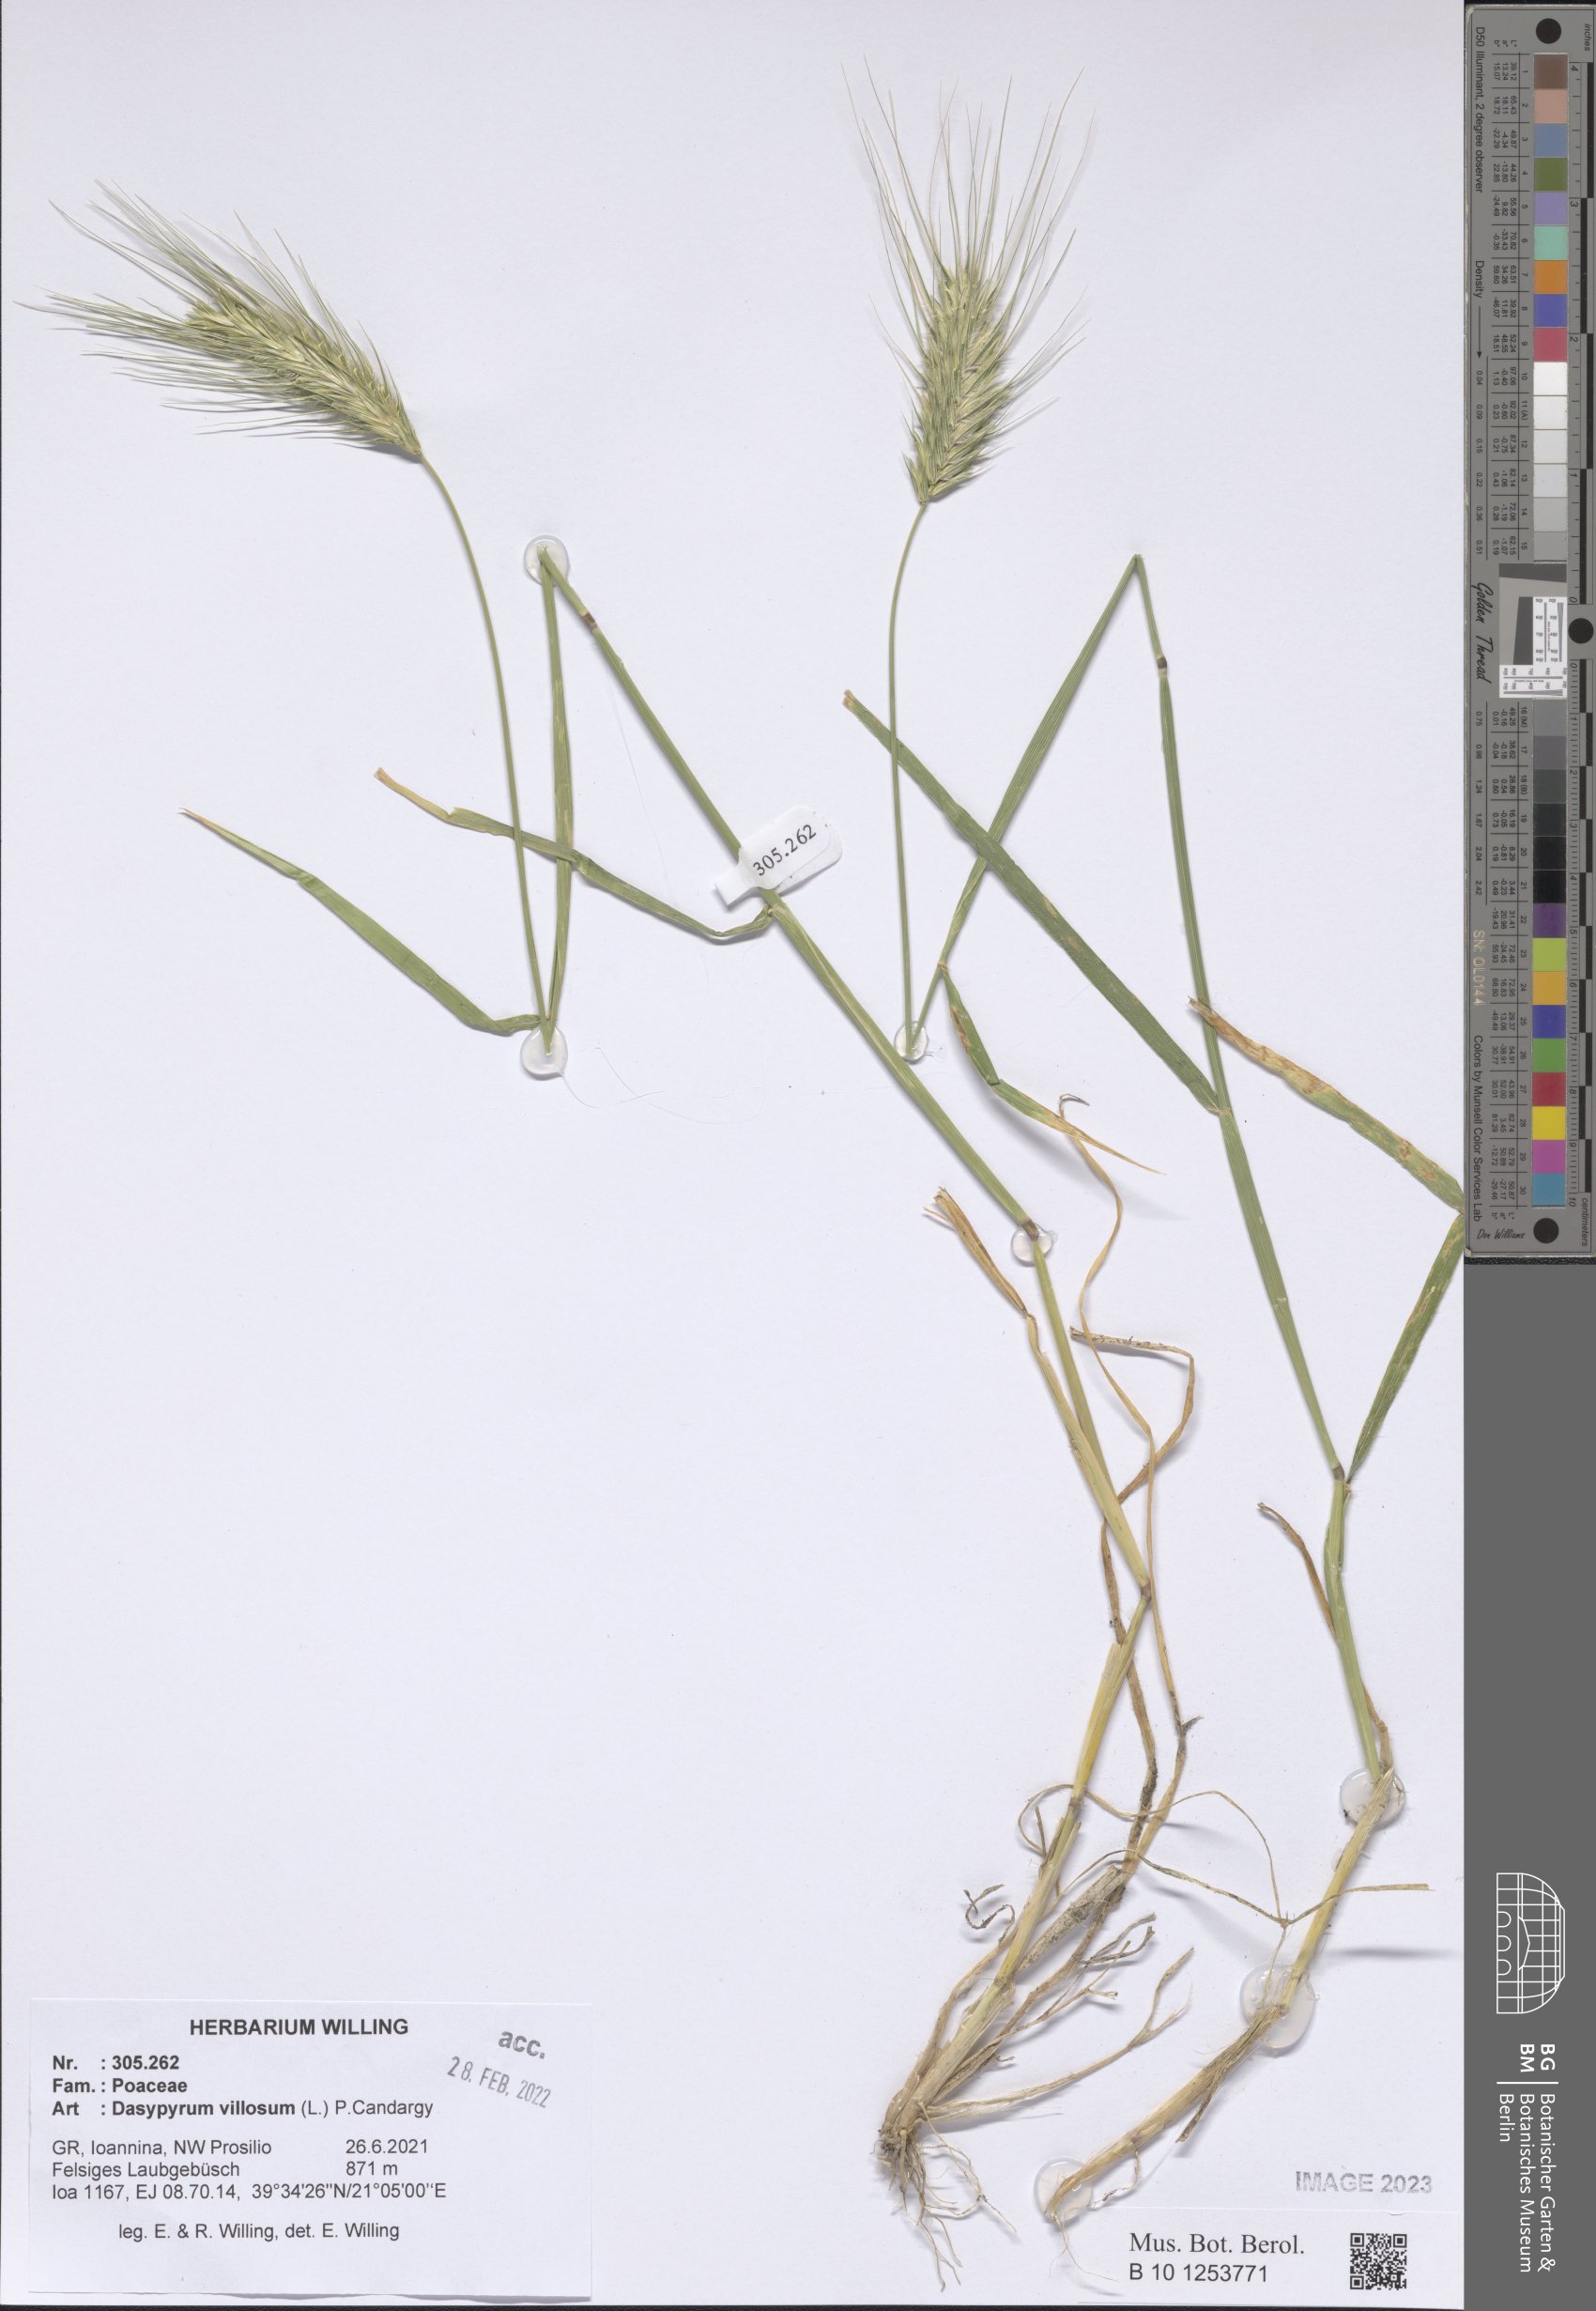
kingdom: Plantae
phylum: Tracheophyta
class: Liliopsida
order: Poales
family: Poaceae
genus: Dasypyrum
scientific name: Dasypyrum villosum
